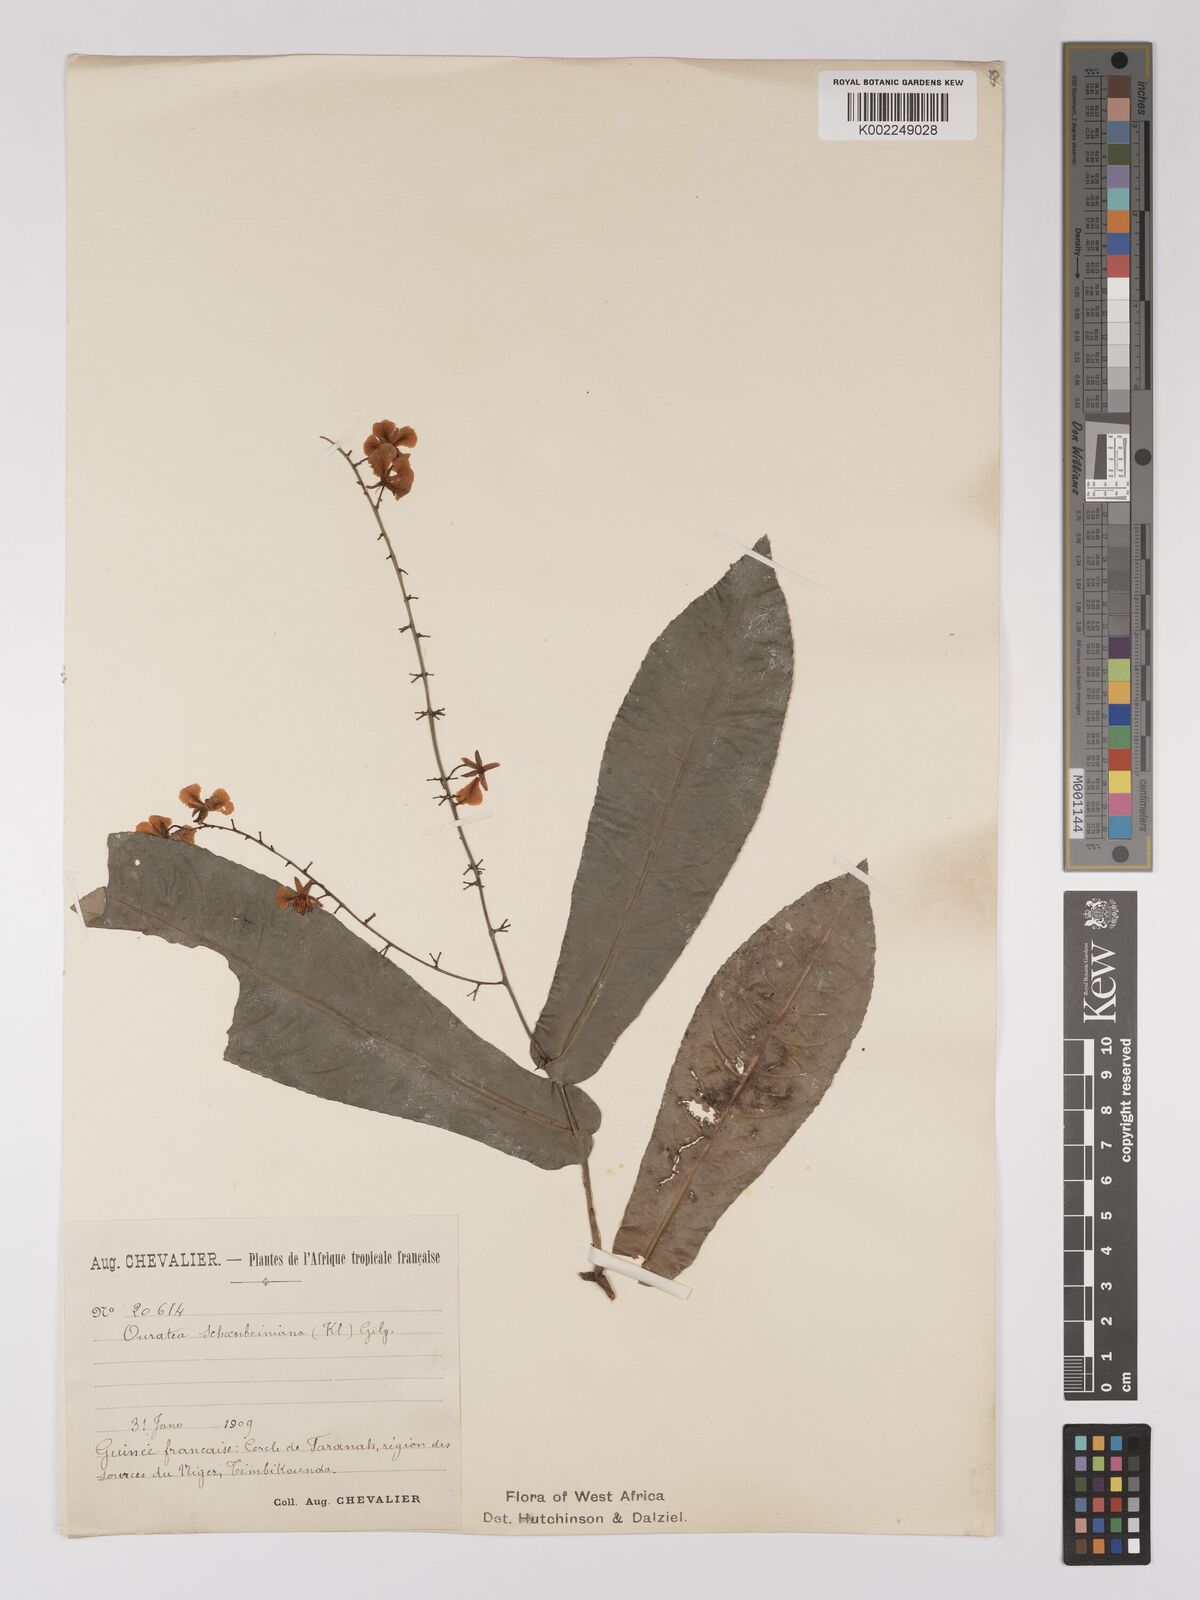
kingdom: Plantae
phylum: Tracheophyta
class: Magnoliopsida
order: Malpighiales
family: Ochnaceae
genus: Campylospermum
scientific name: Campylospermum schoenleinianum
